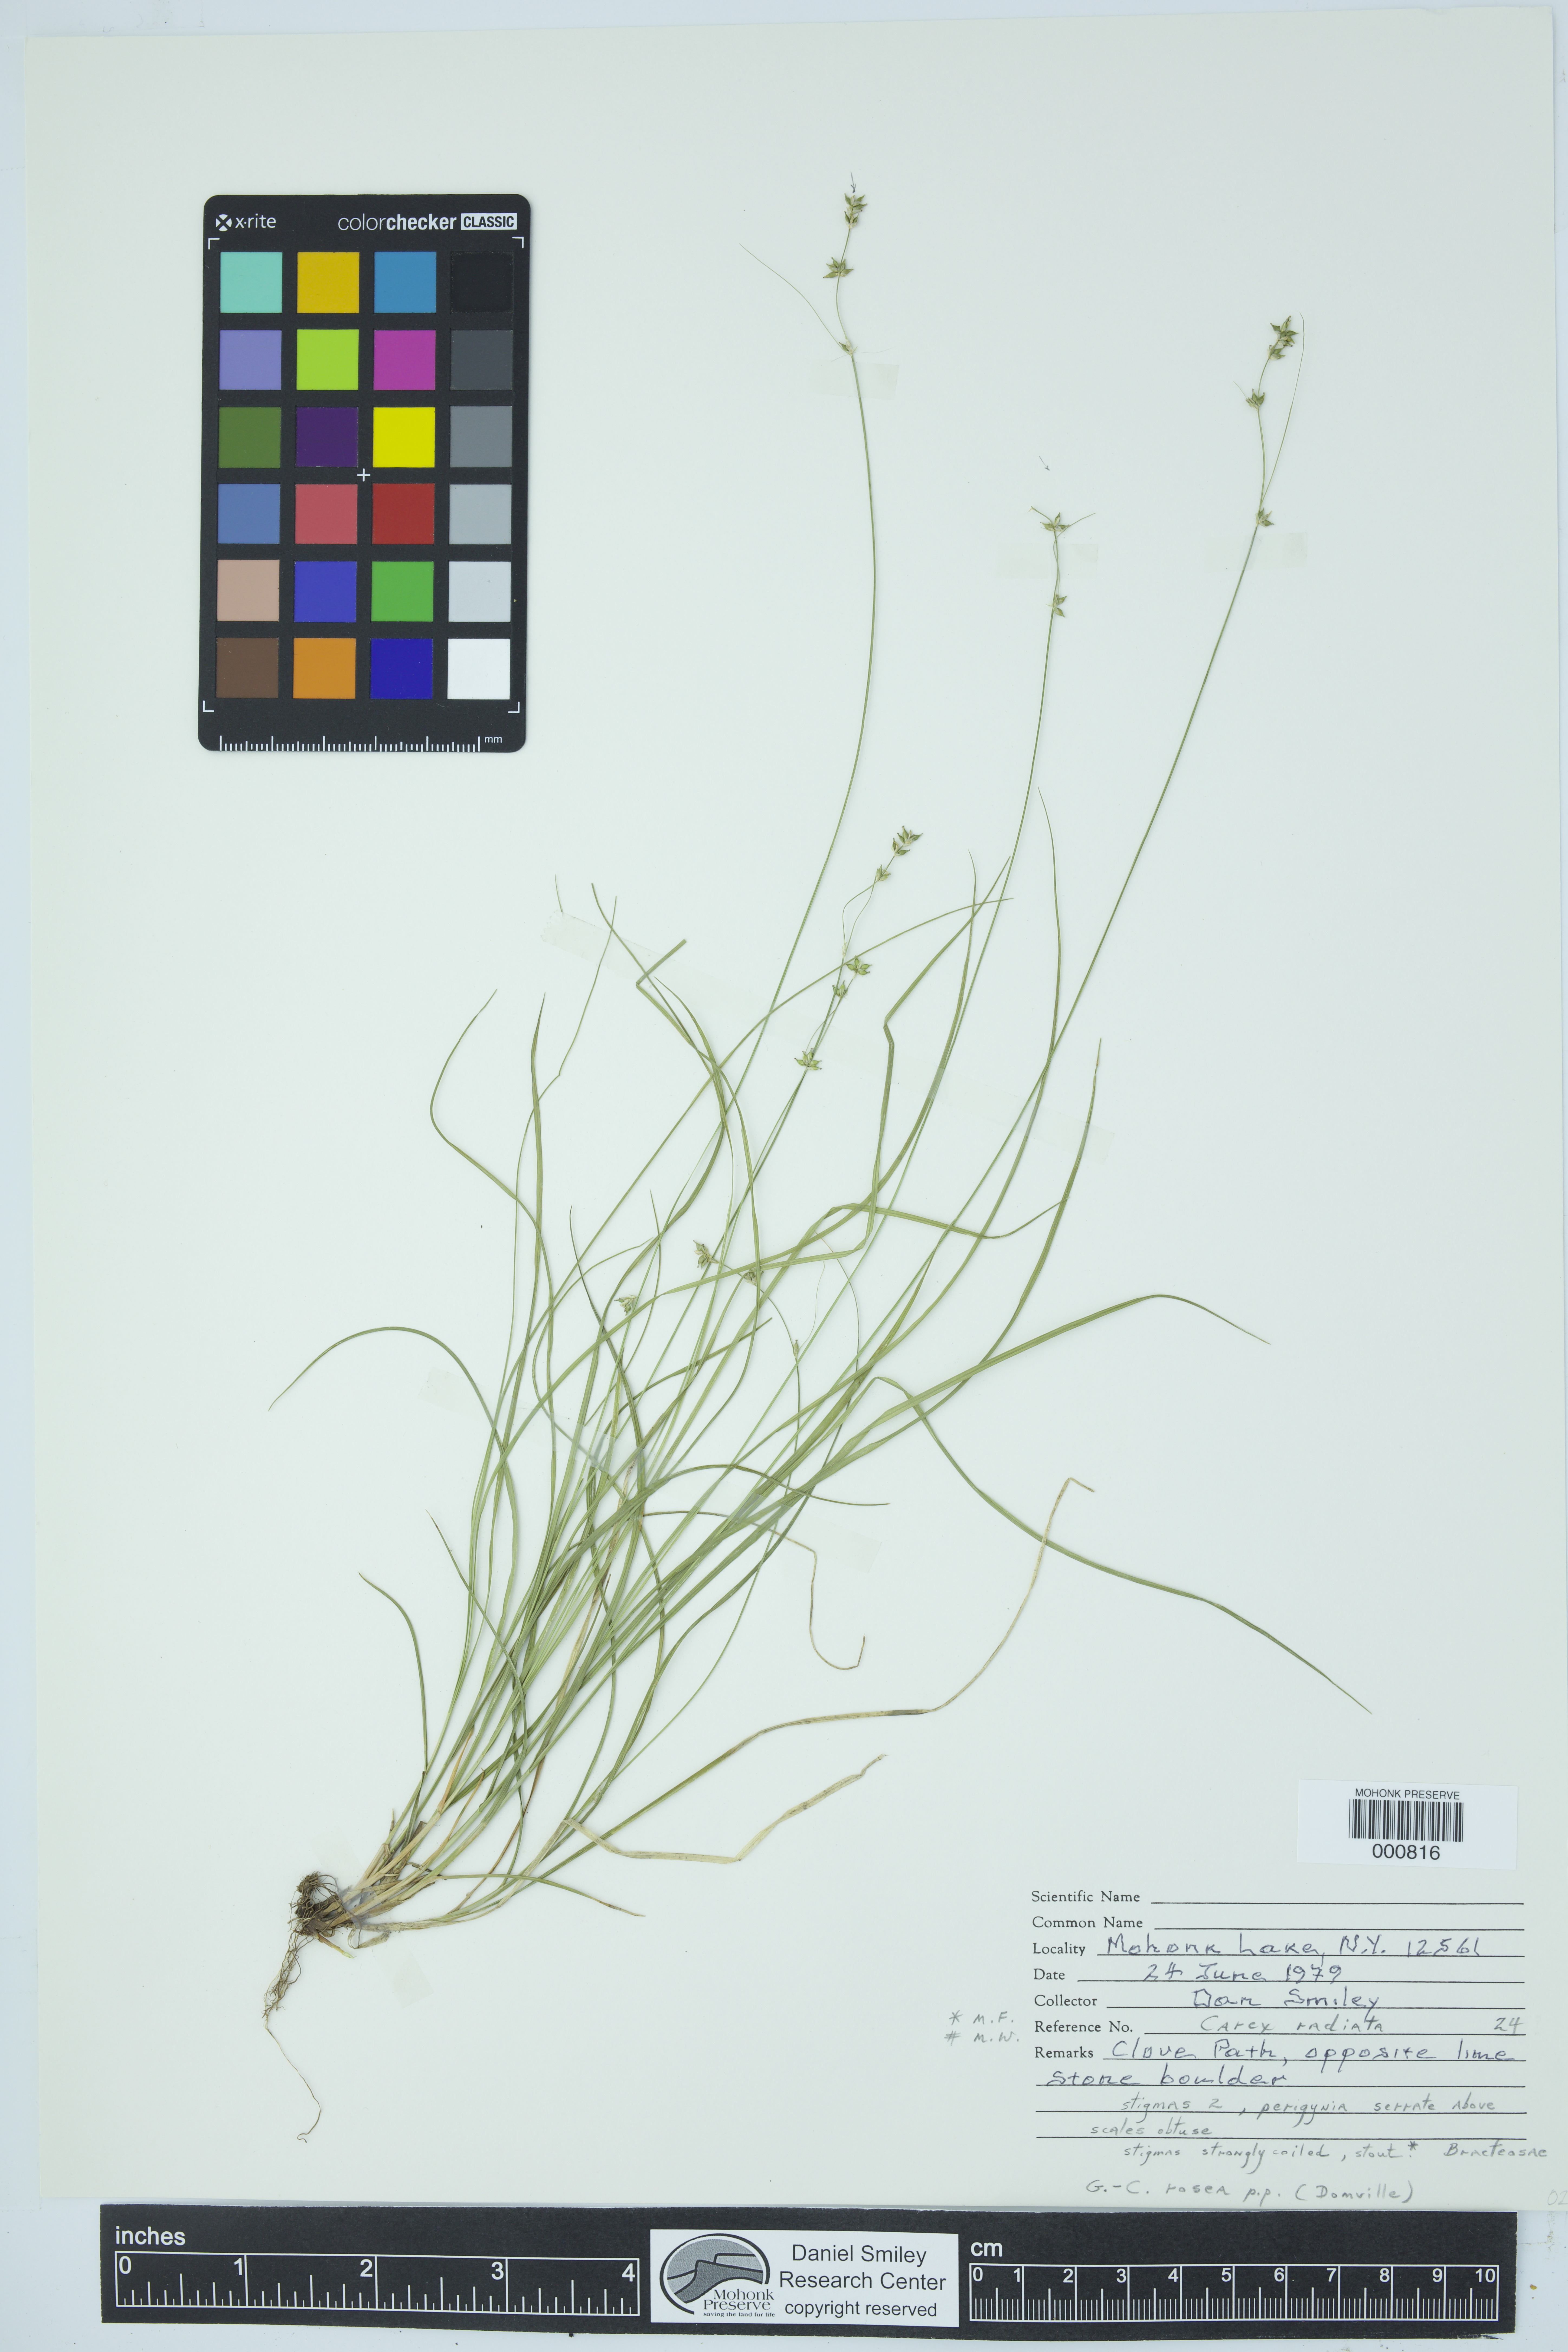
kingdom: Plantae
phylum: Tracheophyta
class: Liliopsida
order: Poales
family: Cyperaceae
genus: Carex
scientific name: Carex radiata
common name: Eastern star sedge
